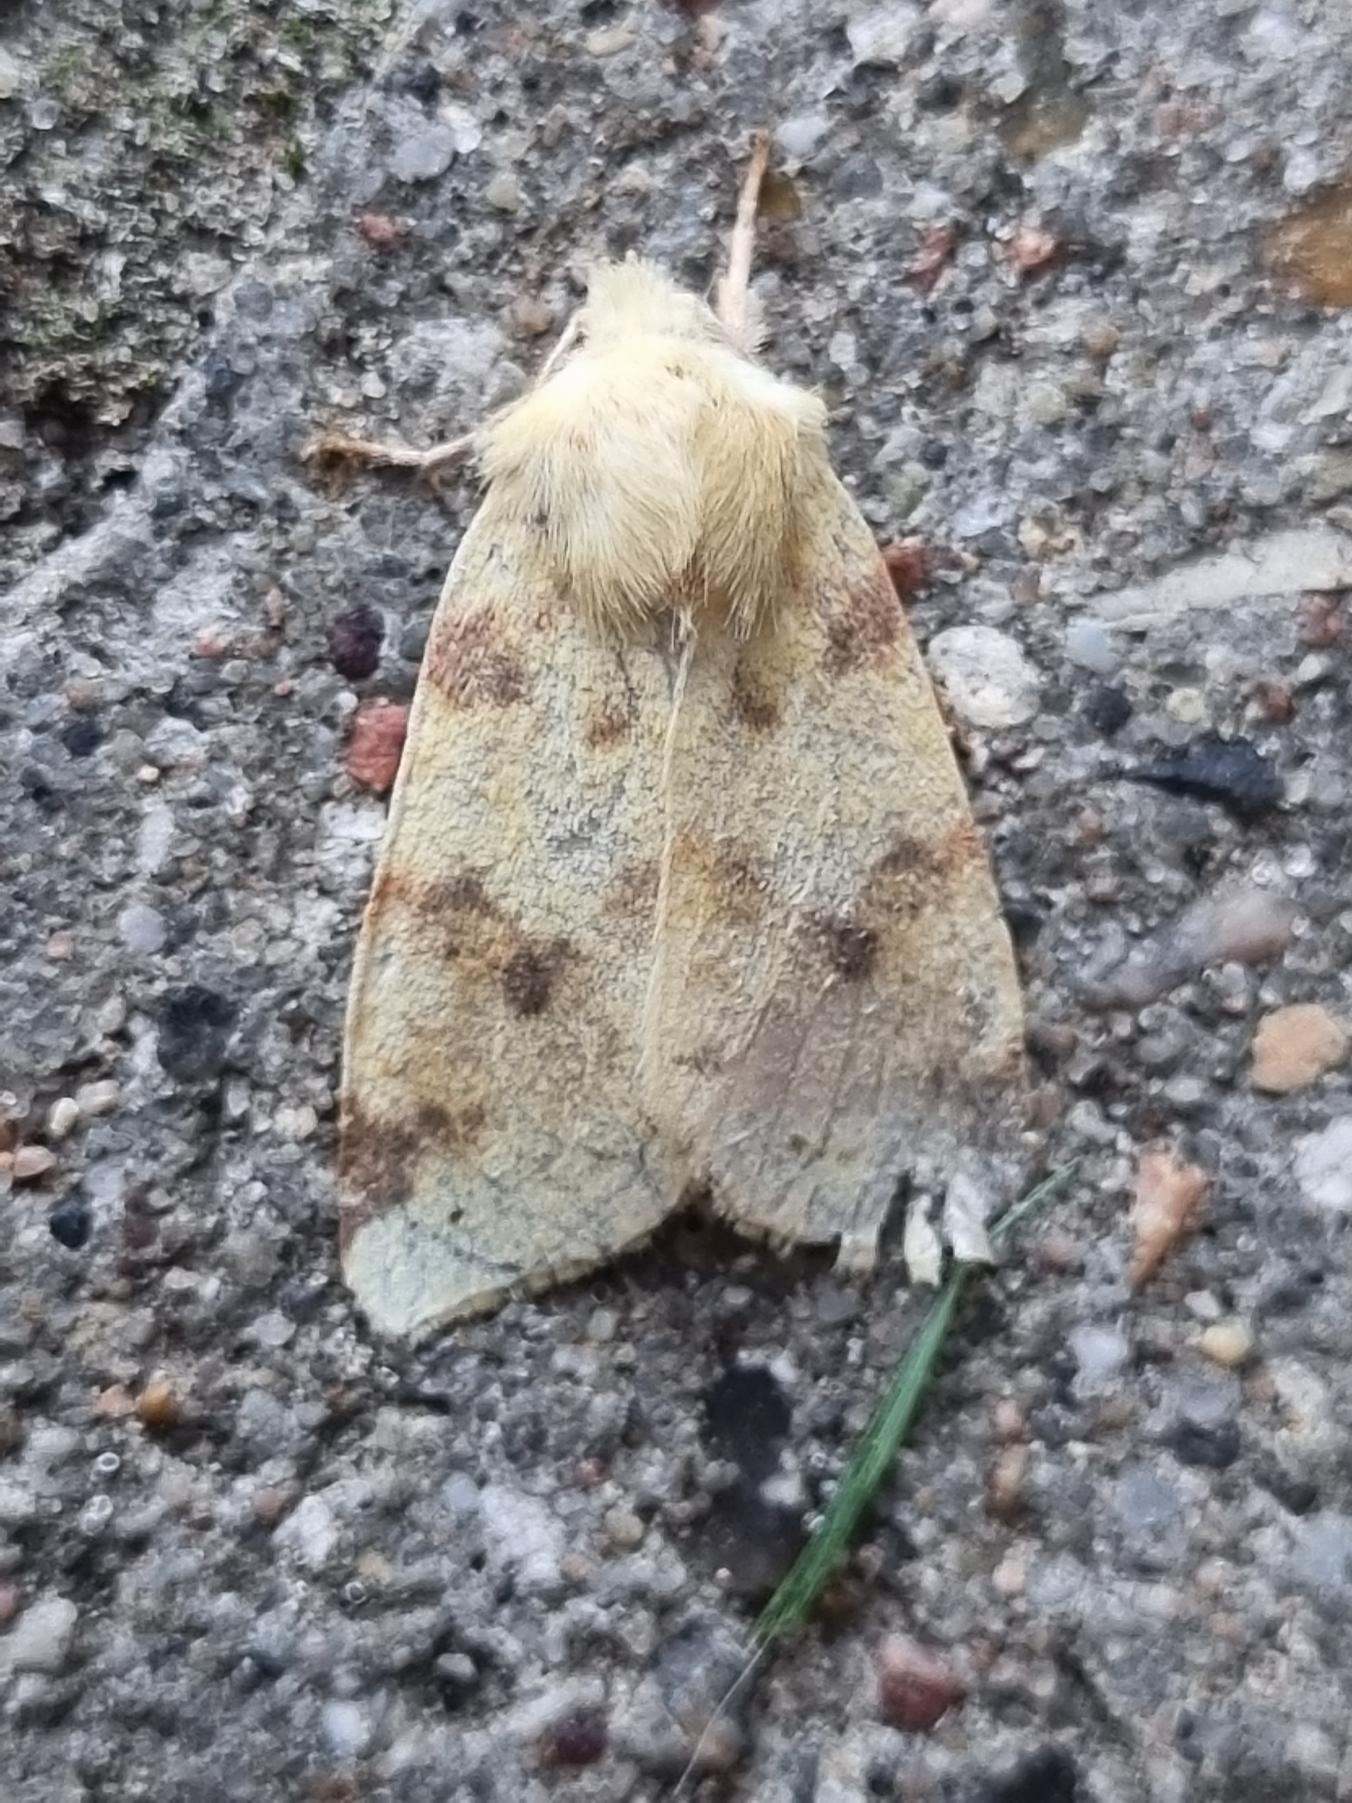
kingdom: Animalia
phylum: Arthropoda
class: Insecta
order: Lepidoptera
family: Noctuidae
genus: Xanthia
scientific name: Xanthia Cirrhia icteritia
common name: Brombær-guldugle
